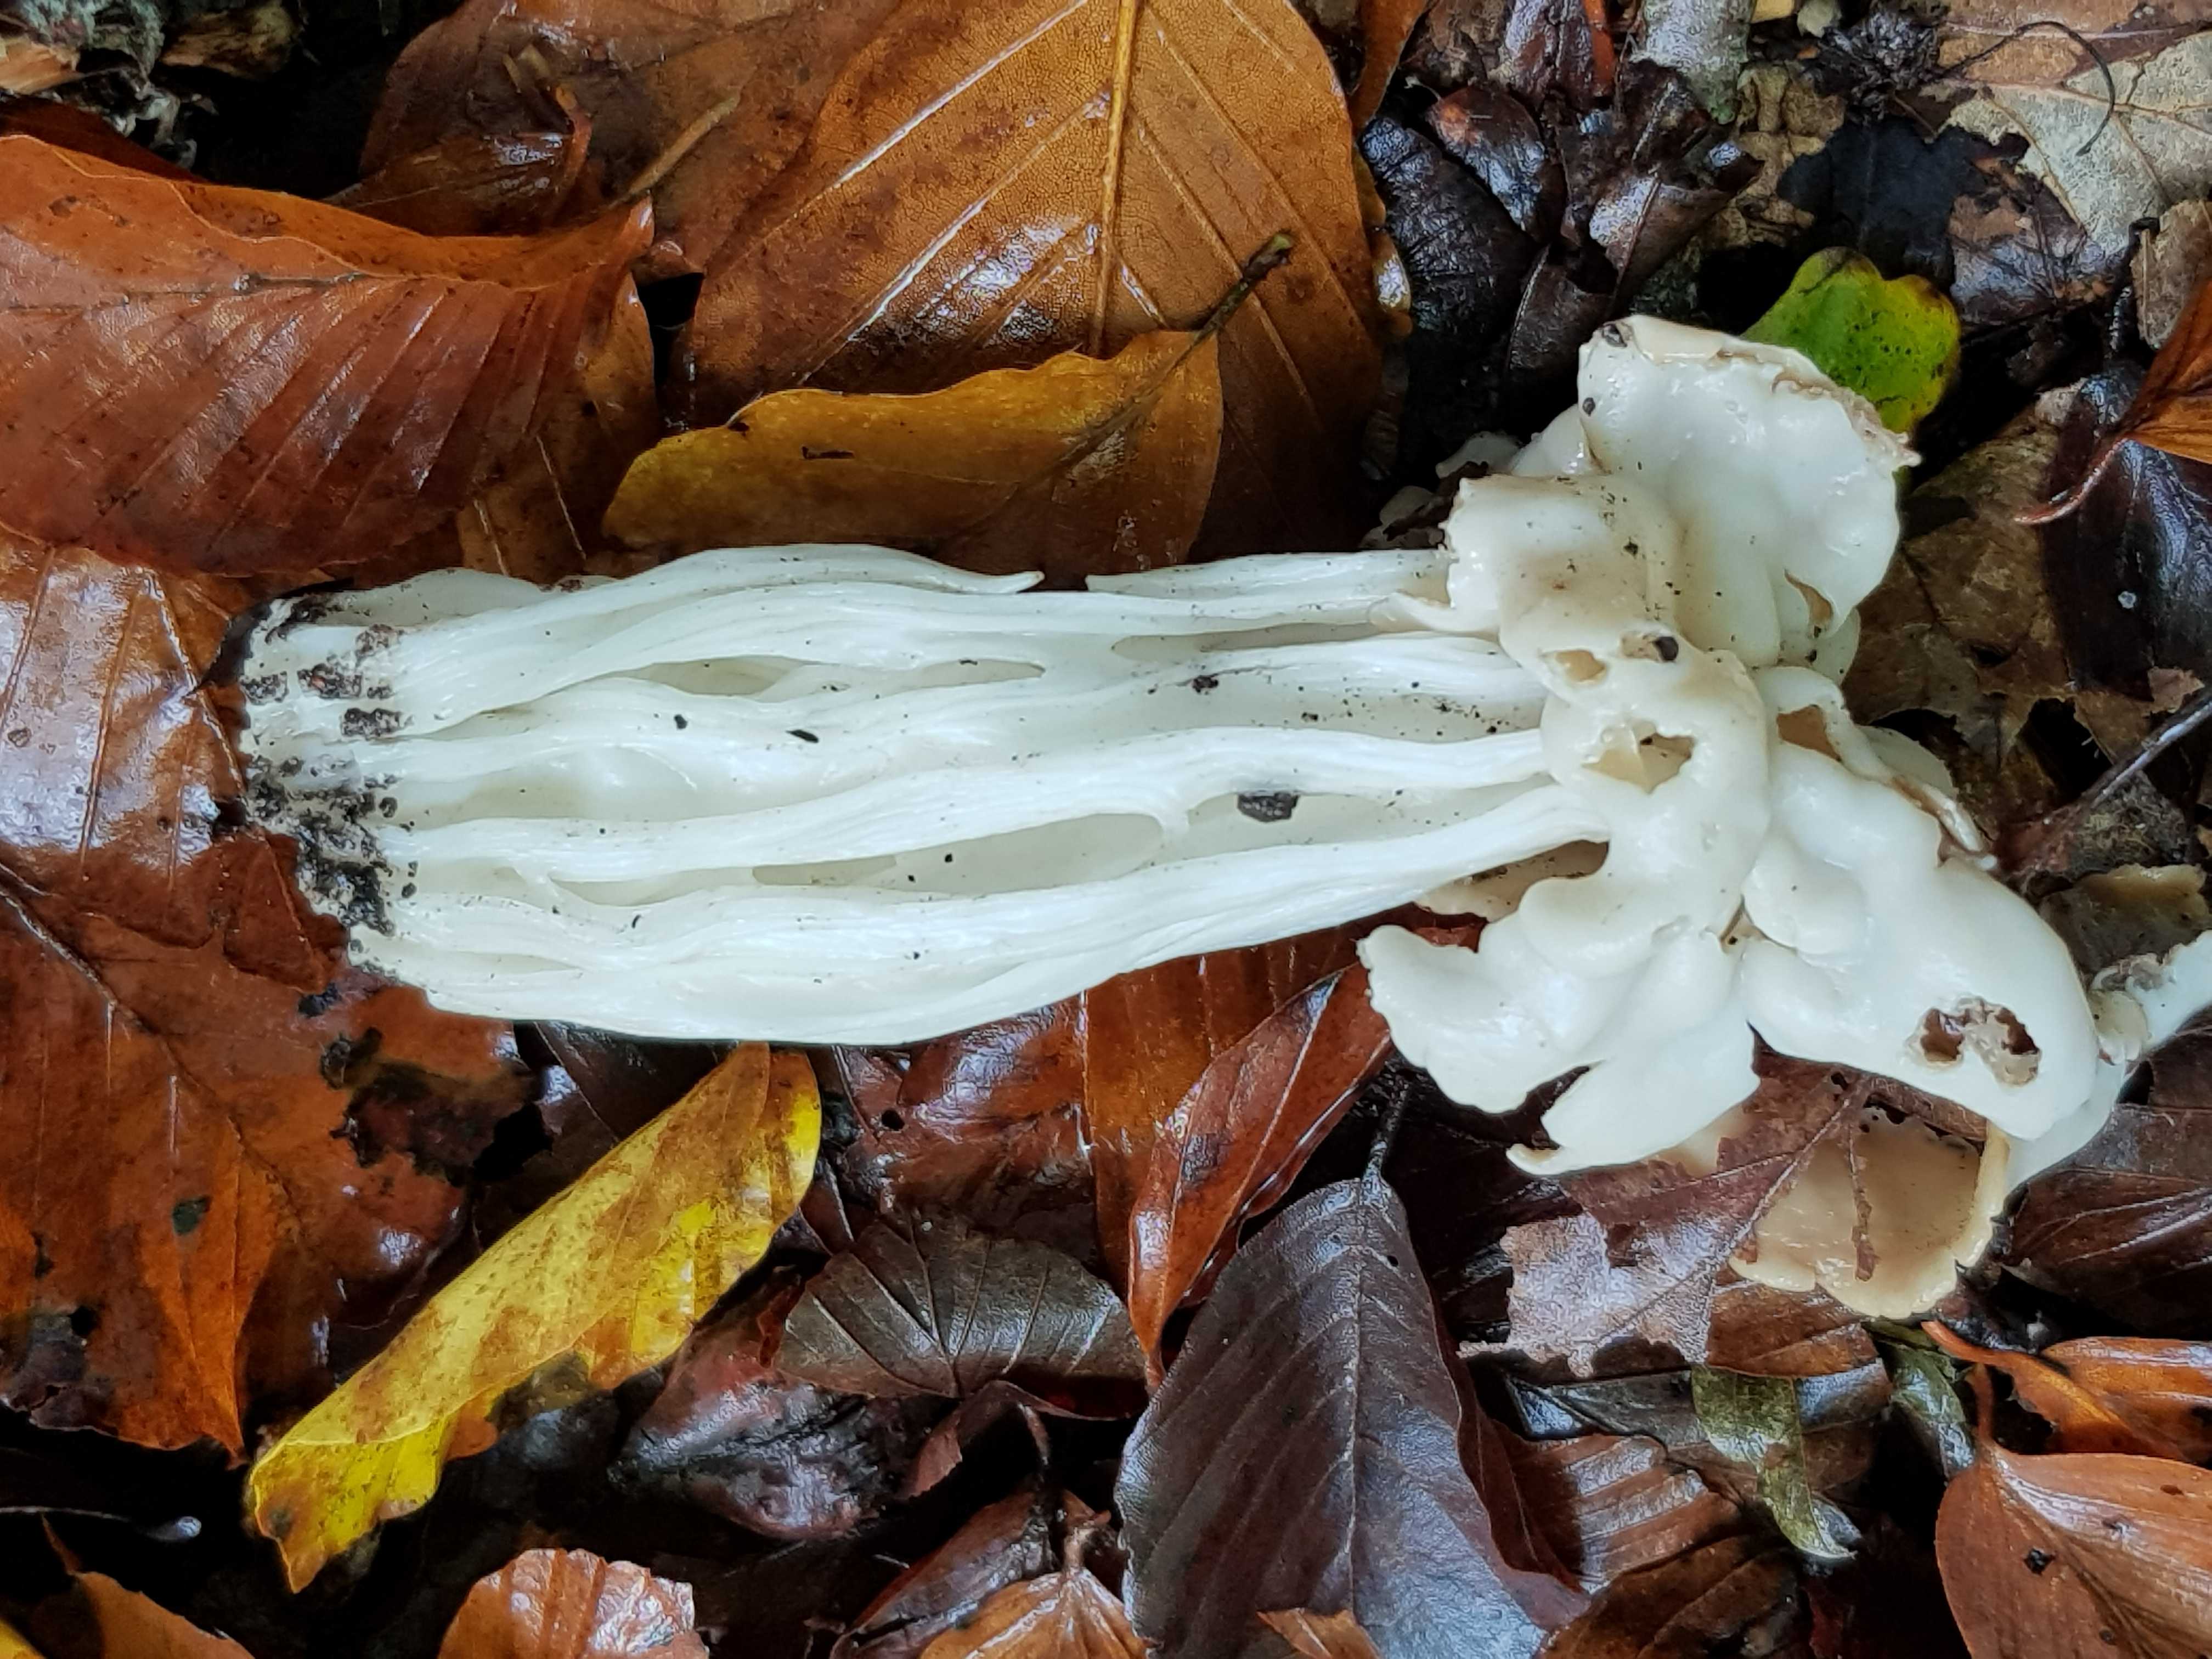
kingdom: Fungi
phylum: Ascomycota
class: Pezizomycetes
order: Pezizales
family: Helvellaceae
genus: Helvella
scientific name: Helvella crispa
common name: kruset foldhat
